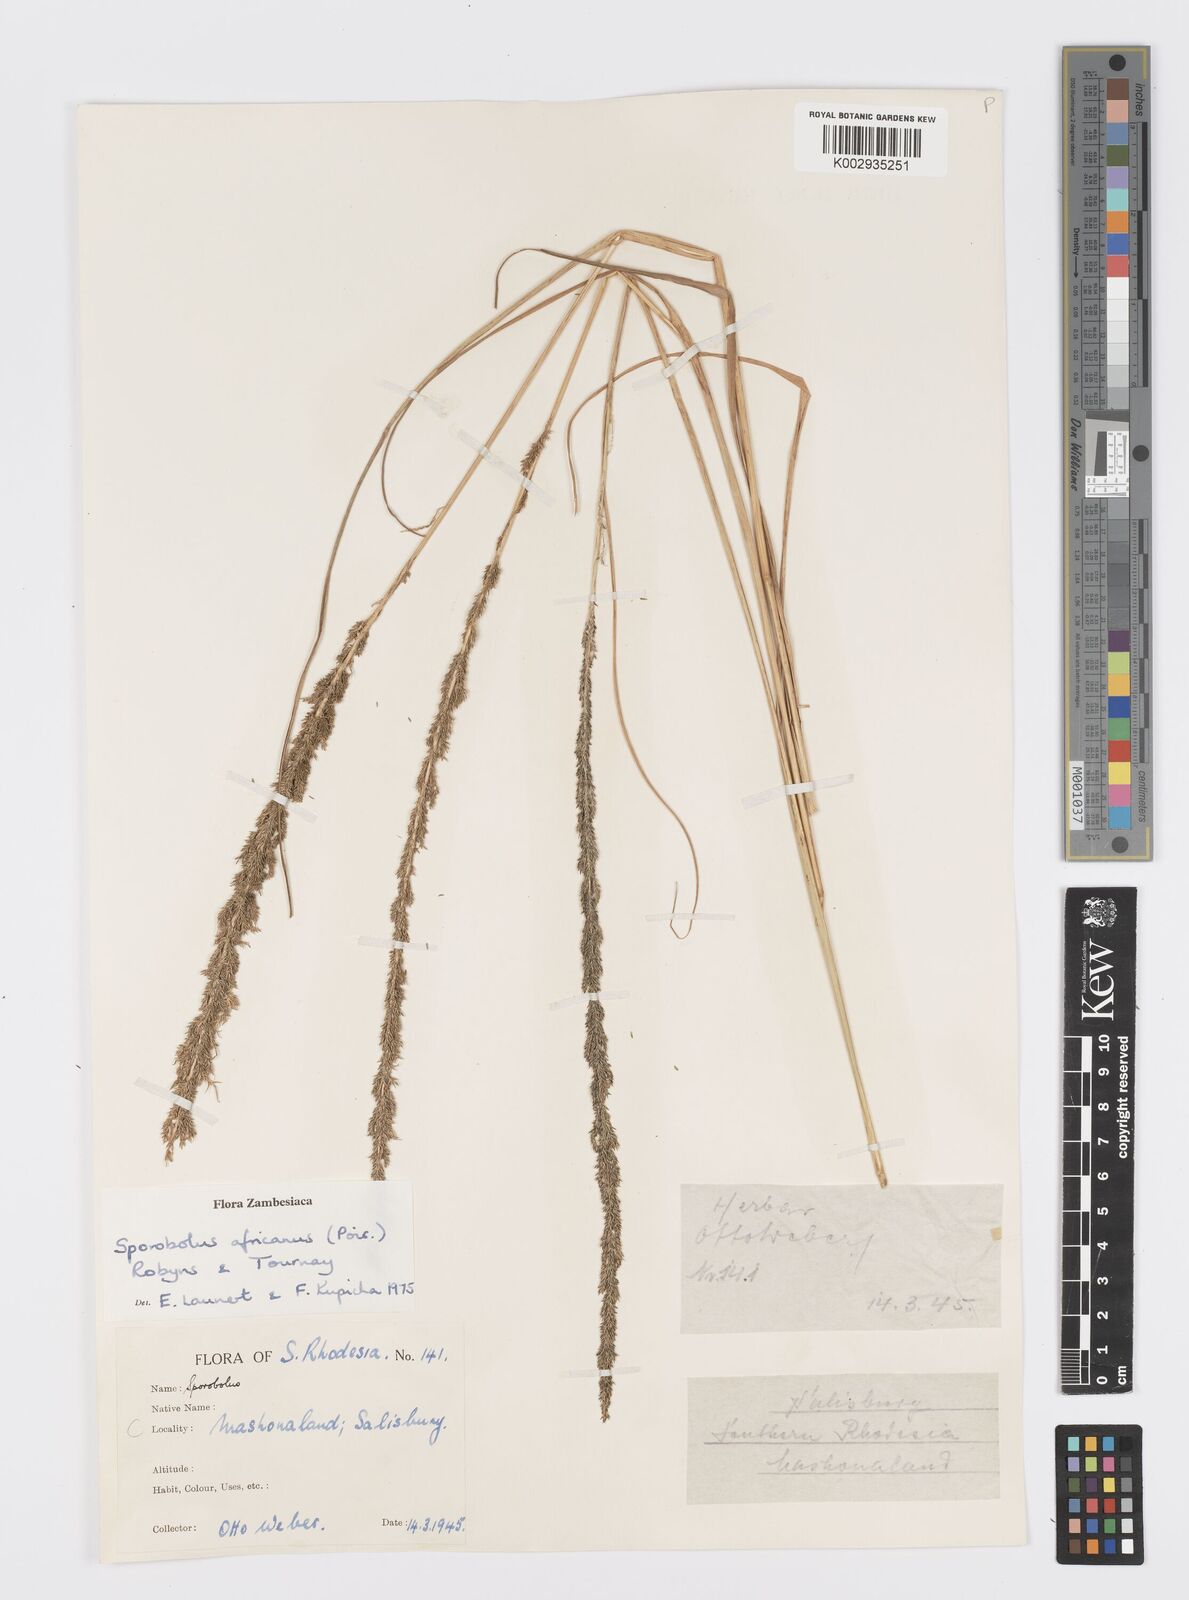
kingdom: Plantae
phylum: Tracheophyta
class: Liliopsida
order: Poales
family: Poaceae
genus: Sporobolus
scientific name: Sporobolus africanus
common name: African dropseed
